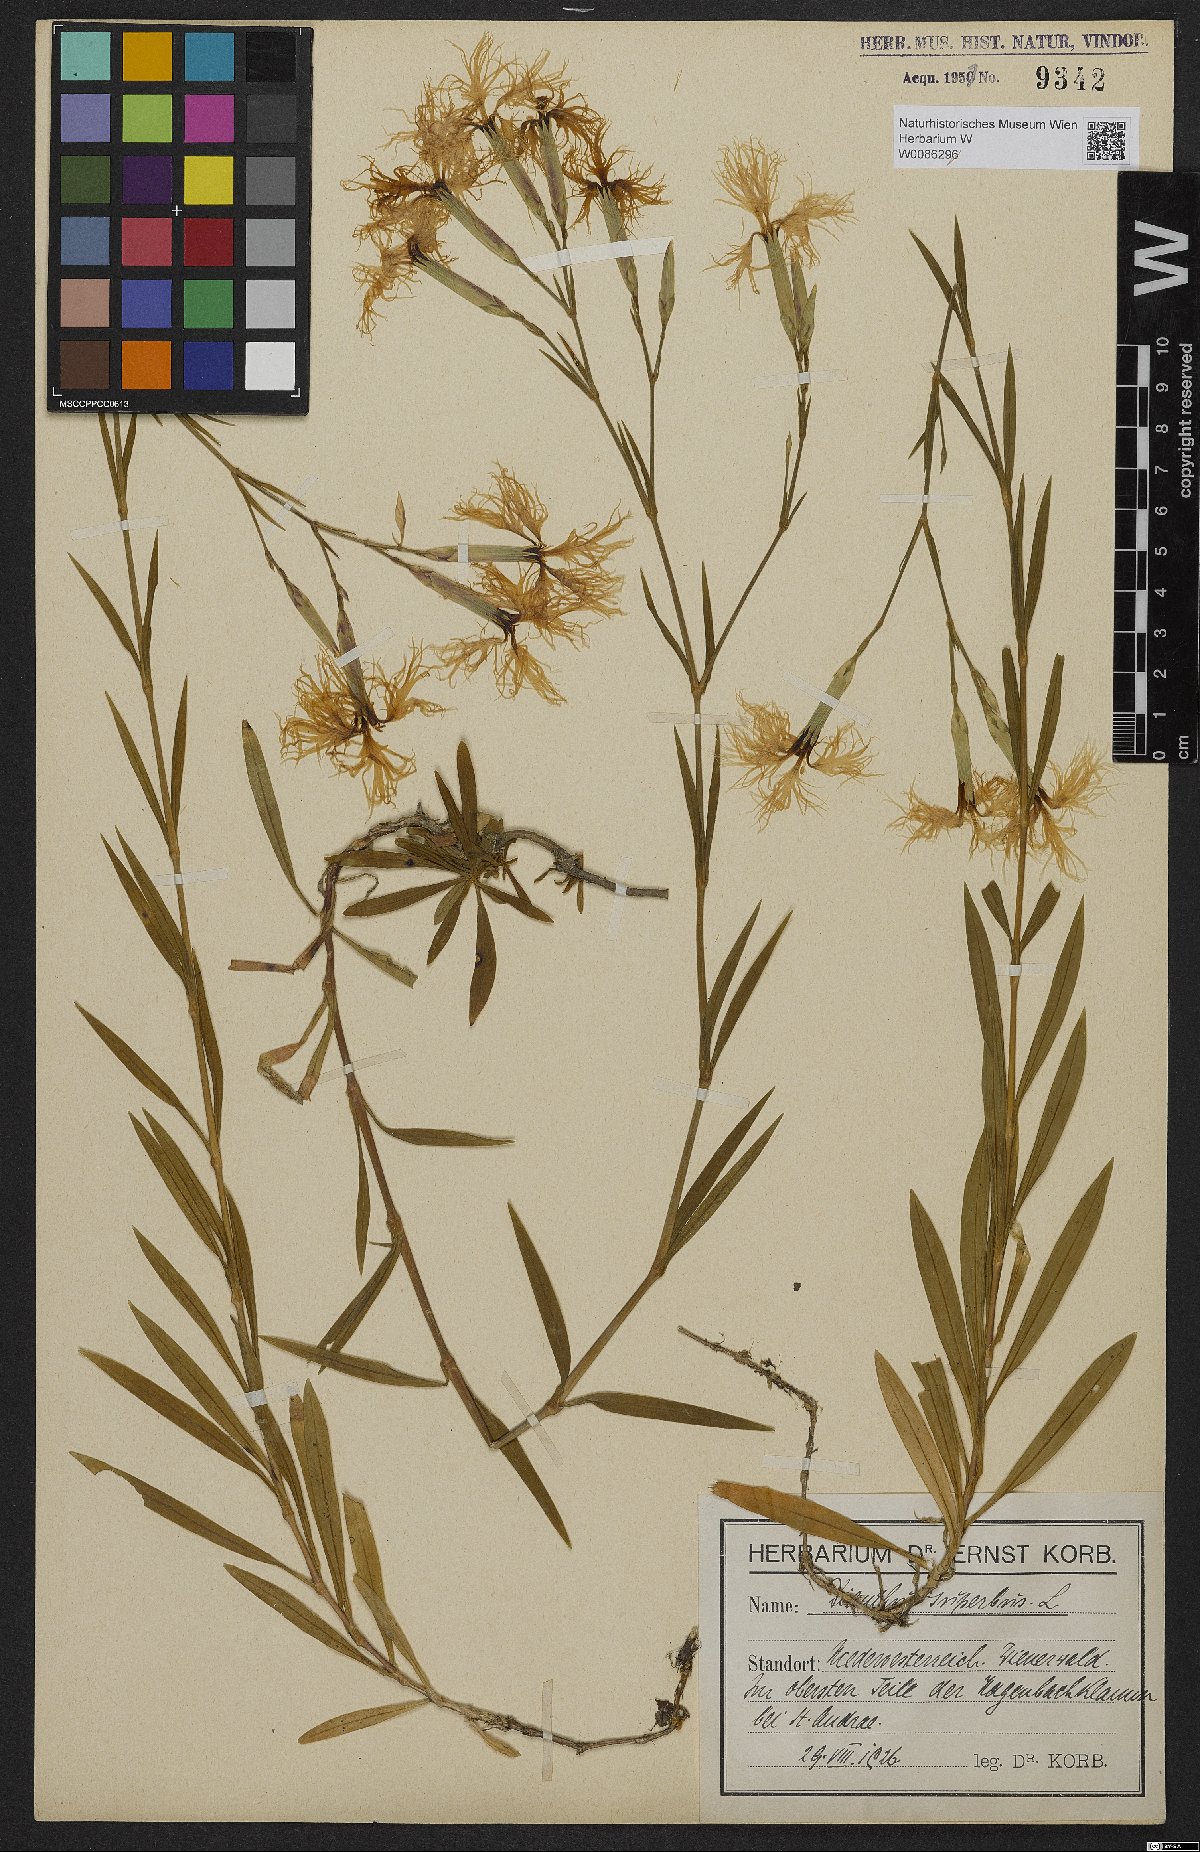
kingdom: Plantae
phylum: Tracheophyta
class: Magnoliopsida
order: Caryophyllales
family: Caryophyllaceae
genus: Dianthus
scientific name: Dianthus superbus
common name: Fringed pink
